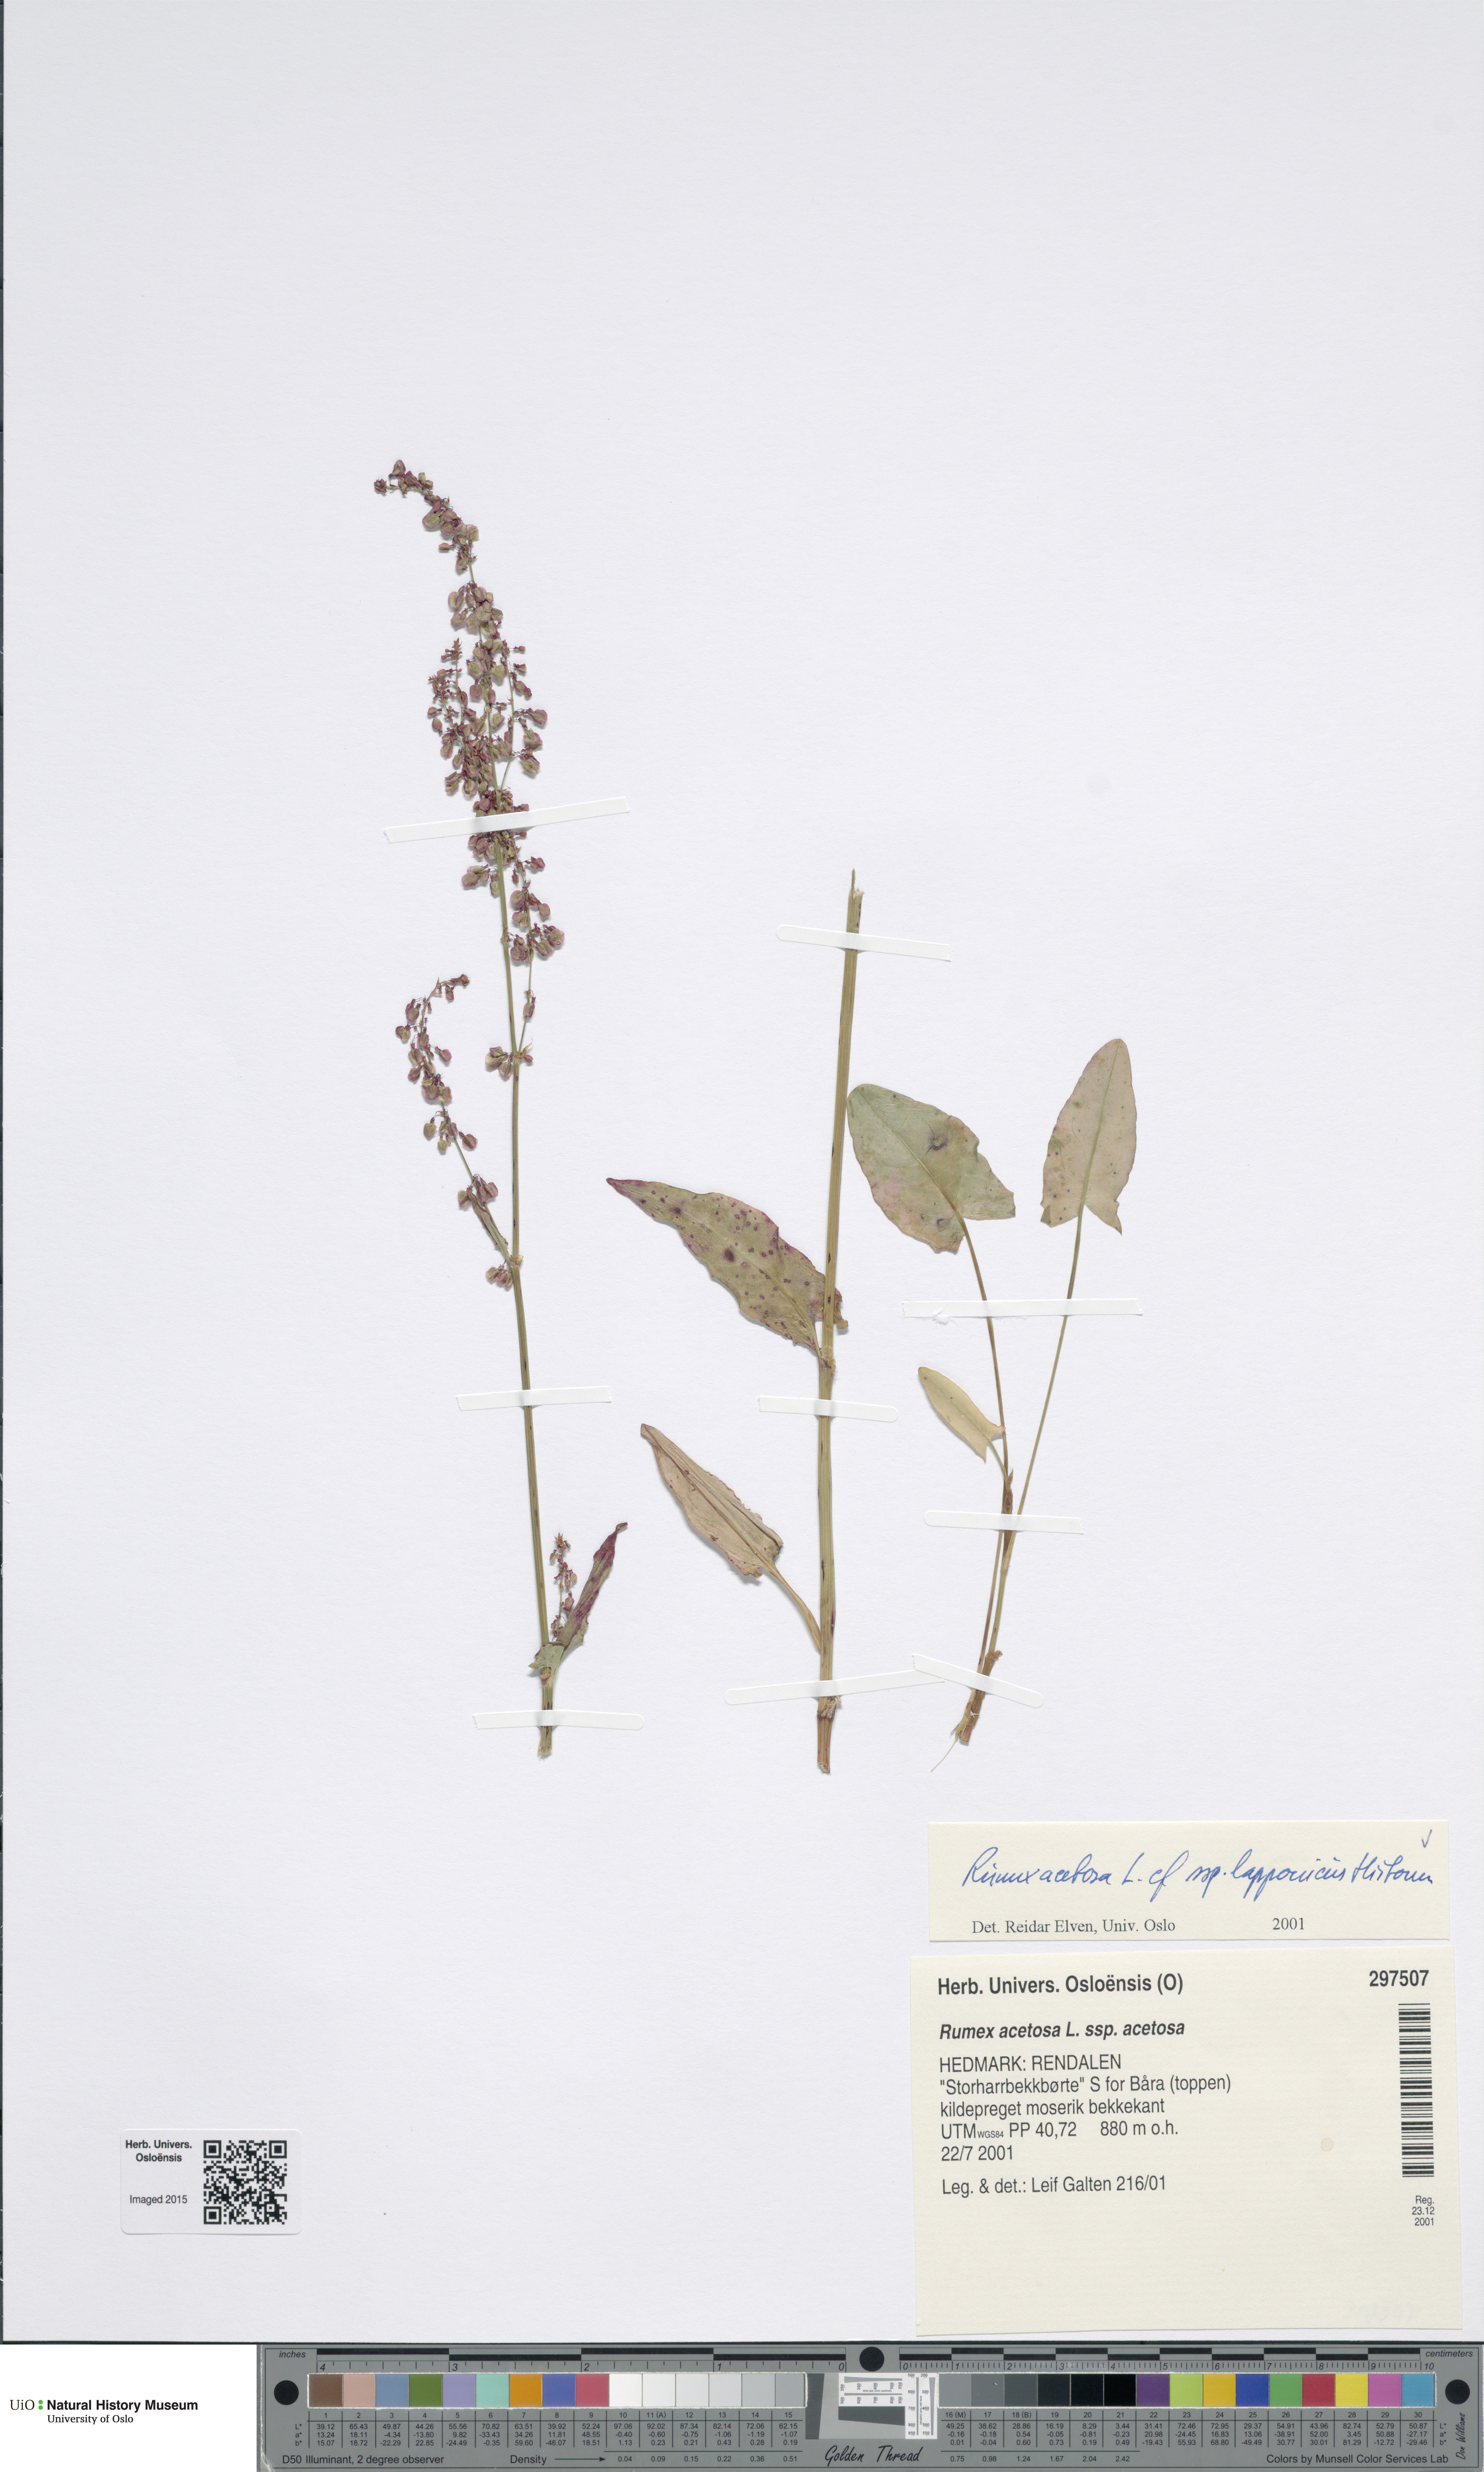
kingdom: Plantae
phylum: Tracheophyta
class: Magnoliopsida
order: Caryophyllales
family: Polygonaceae
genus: Rumex
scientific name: Rumex lapponicus
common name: Lapland mountain sorrel
